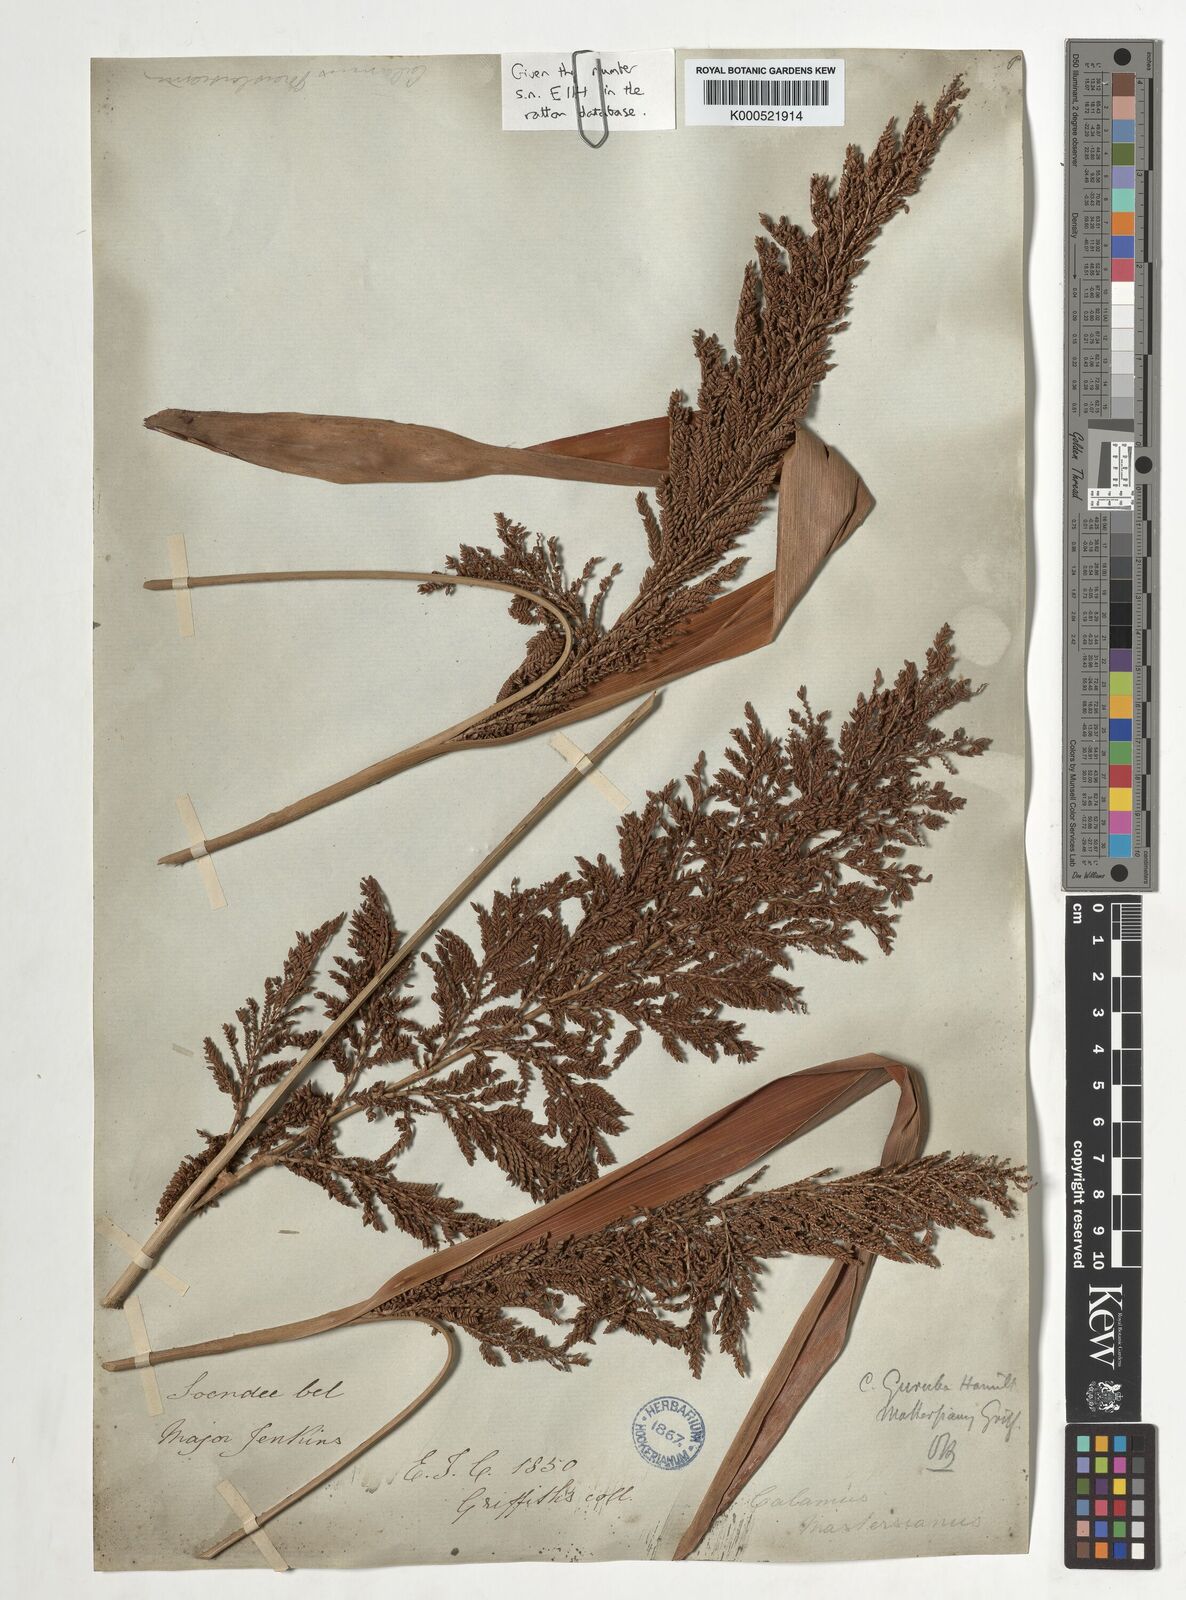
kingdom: Plantae
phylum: Tracheophyta
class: Liliopsida
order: Arecales
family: Arecaceae
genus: Calamus
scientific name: Calamus
